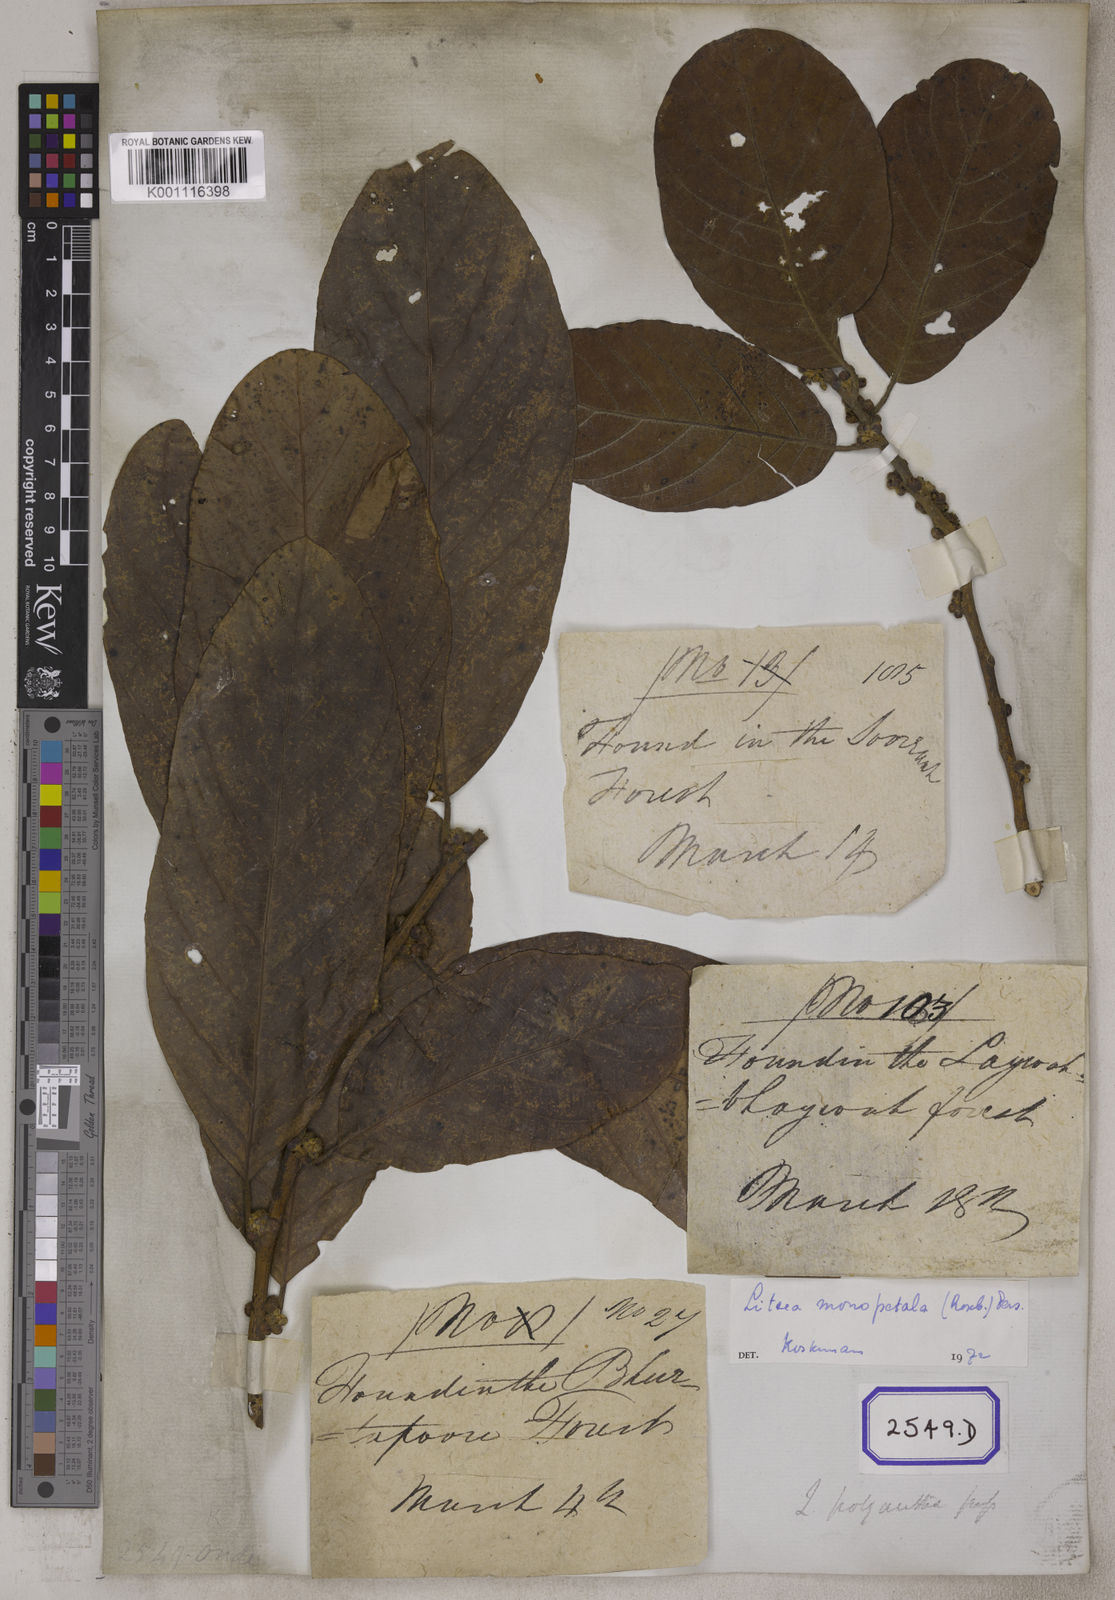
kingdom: Plantae
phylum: Tracheophyta
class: Magnoliopsida
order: Laurales
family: Lauraceae
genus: Litsea
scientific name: Litsea
